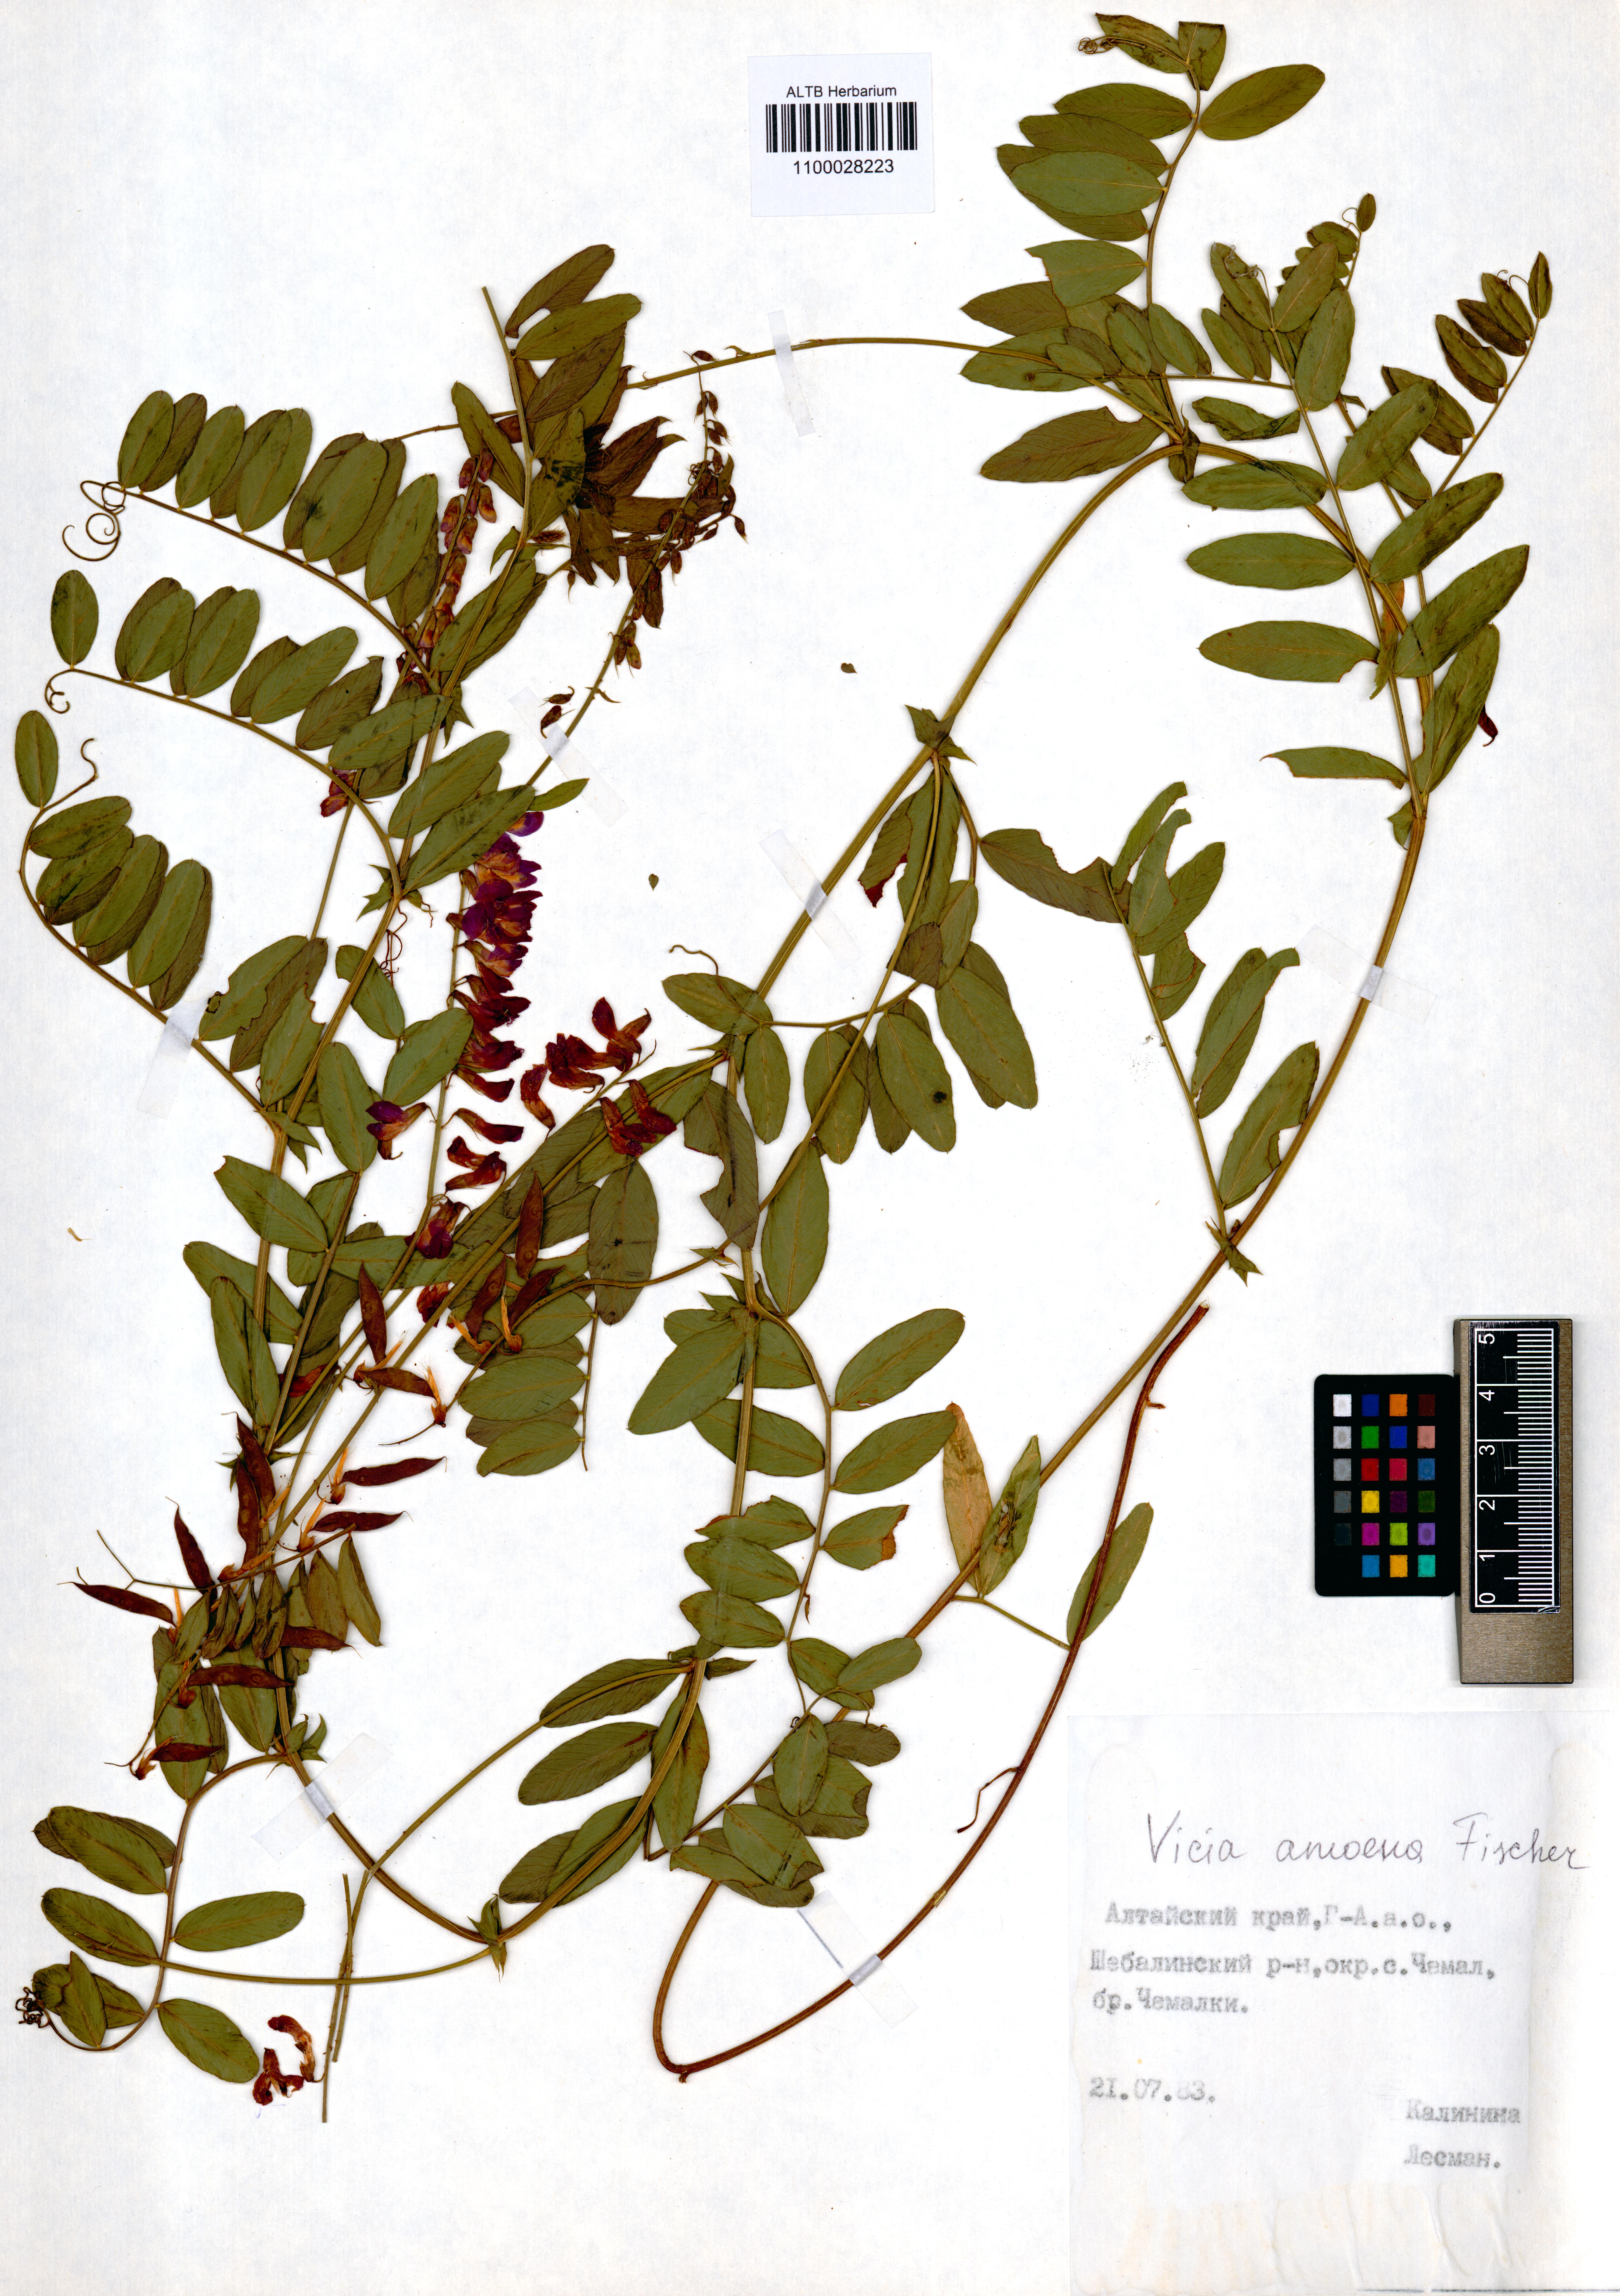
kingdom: Plantae
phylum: Tracheophyta
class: Magnoliopsida
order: Fabales
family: Fabaceae
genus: Vicia
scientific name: Vicia amoena
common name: Cheder ebs
